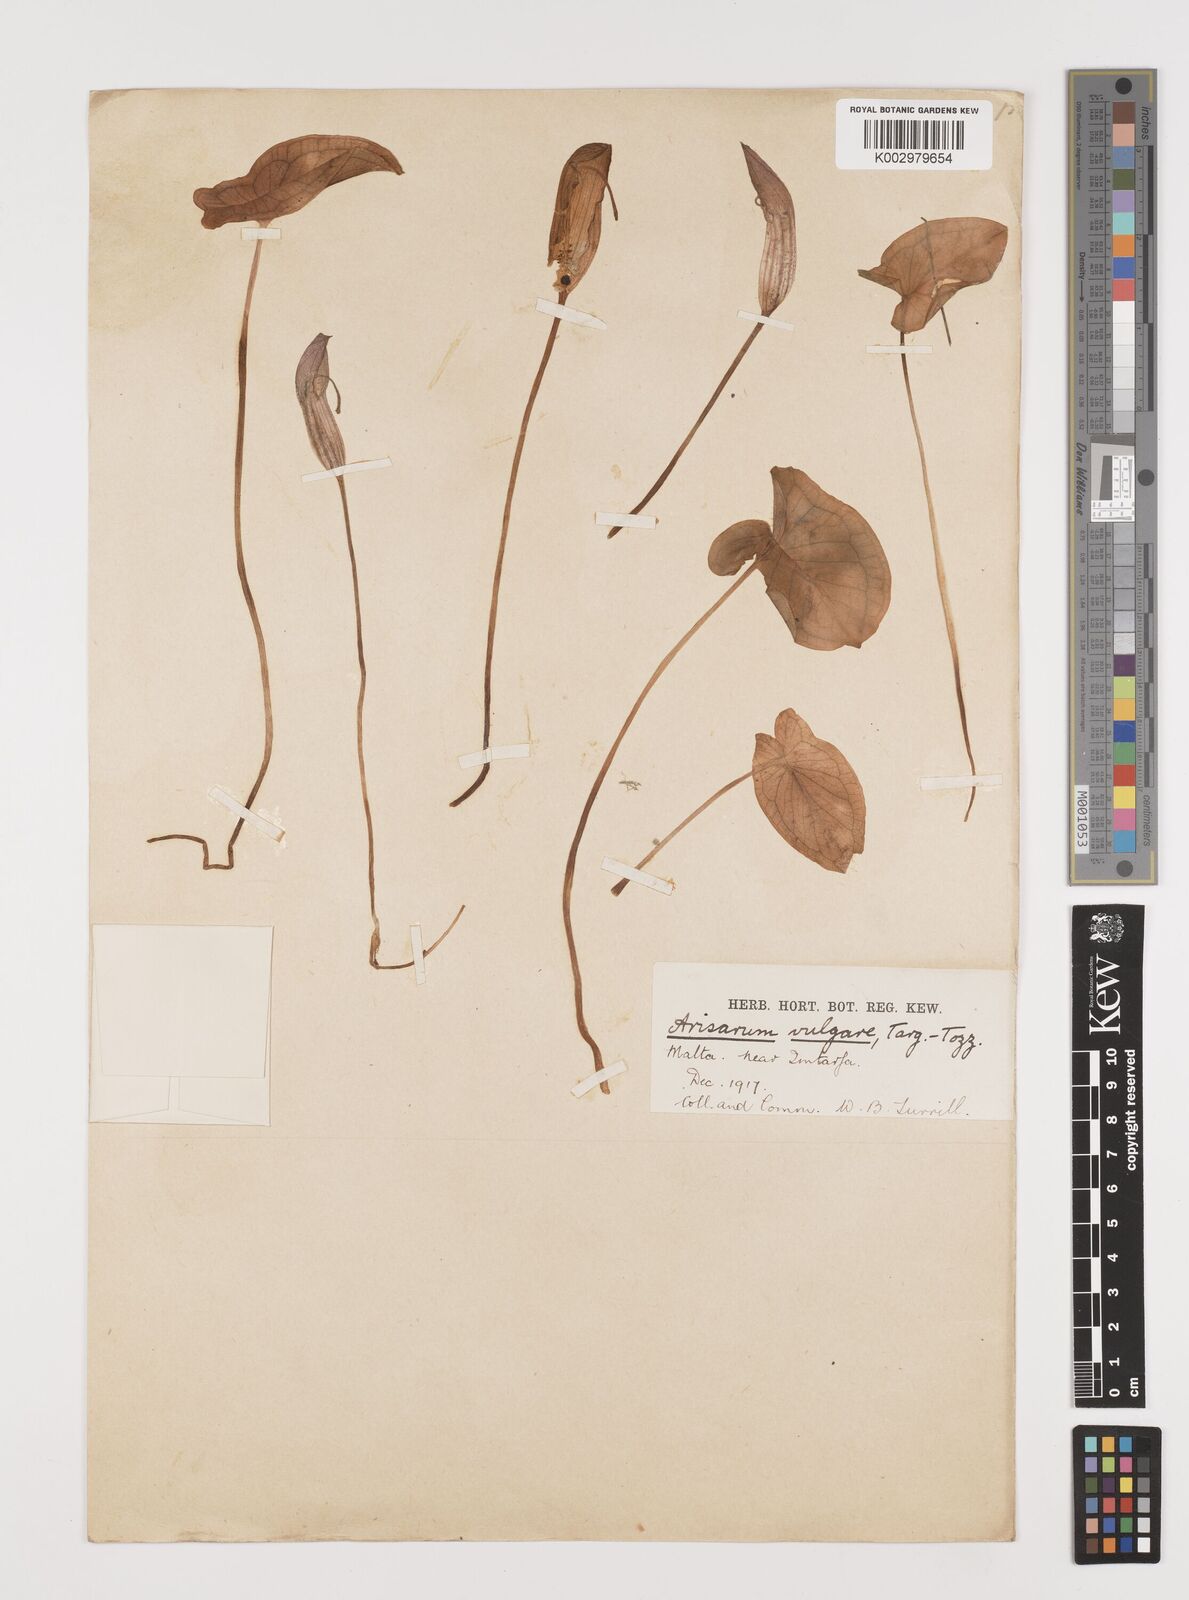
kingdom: Plantae
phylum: Tracheophyta
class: Liliopsida
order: Alismatales
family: Araceae
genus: Arisarum
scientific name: Arisarum vulgare
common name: Common arisarum
